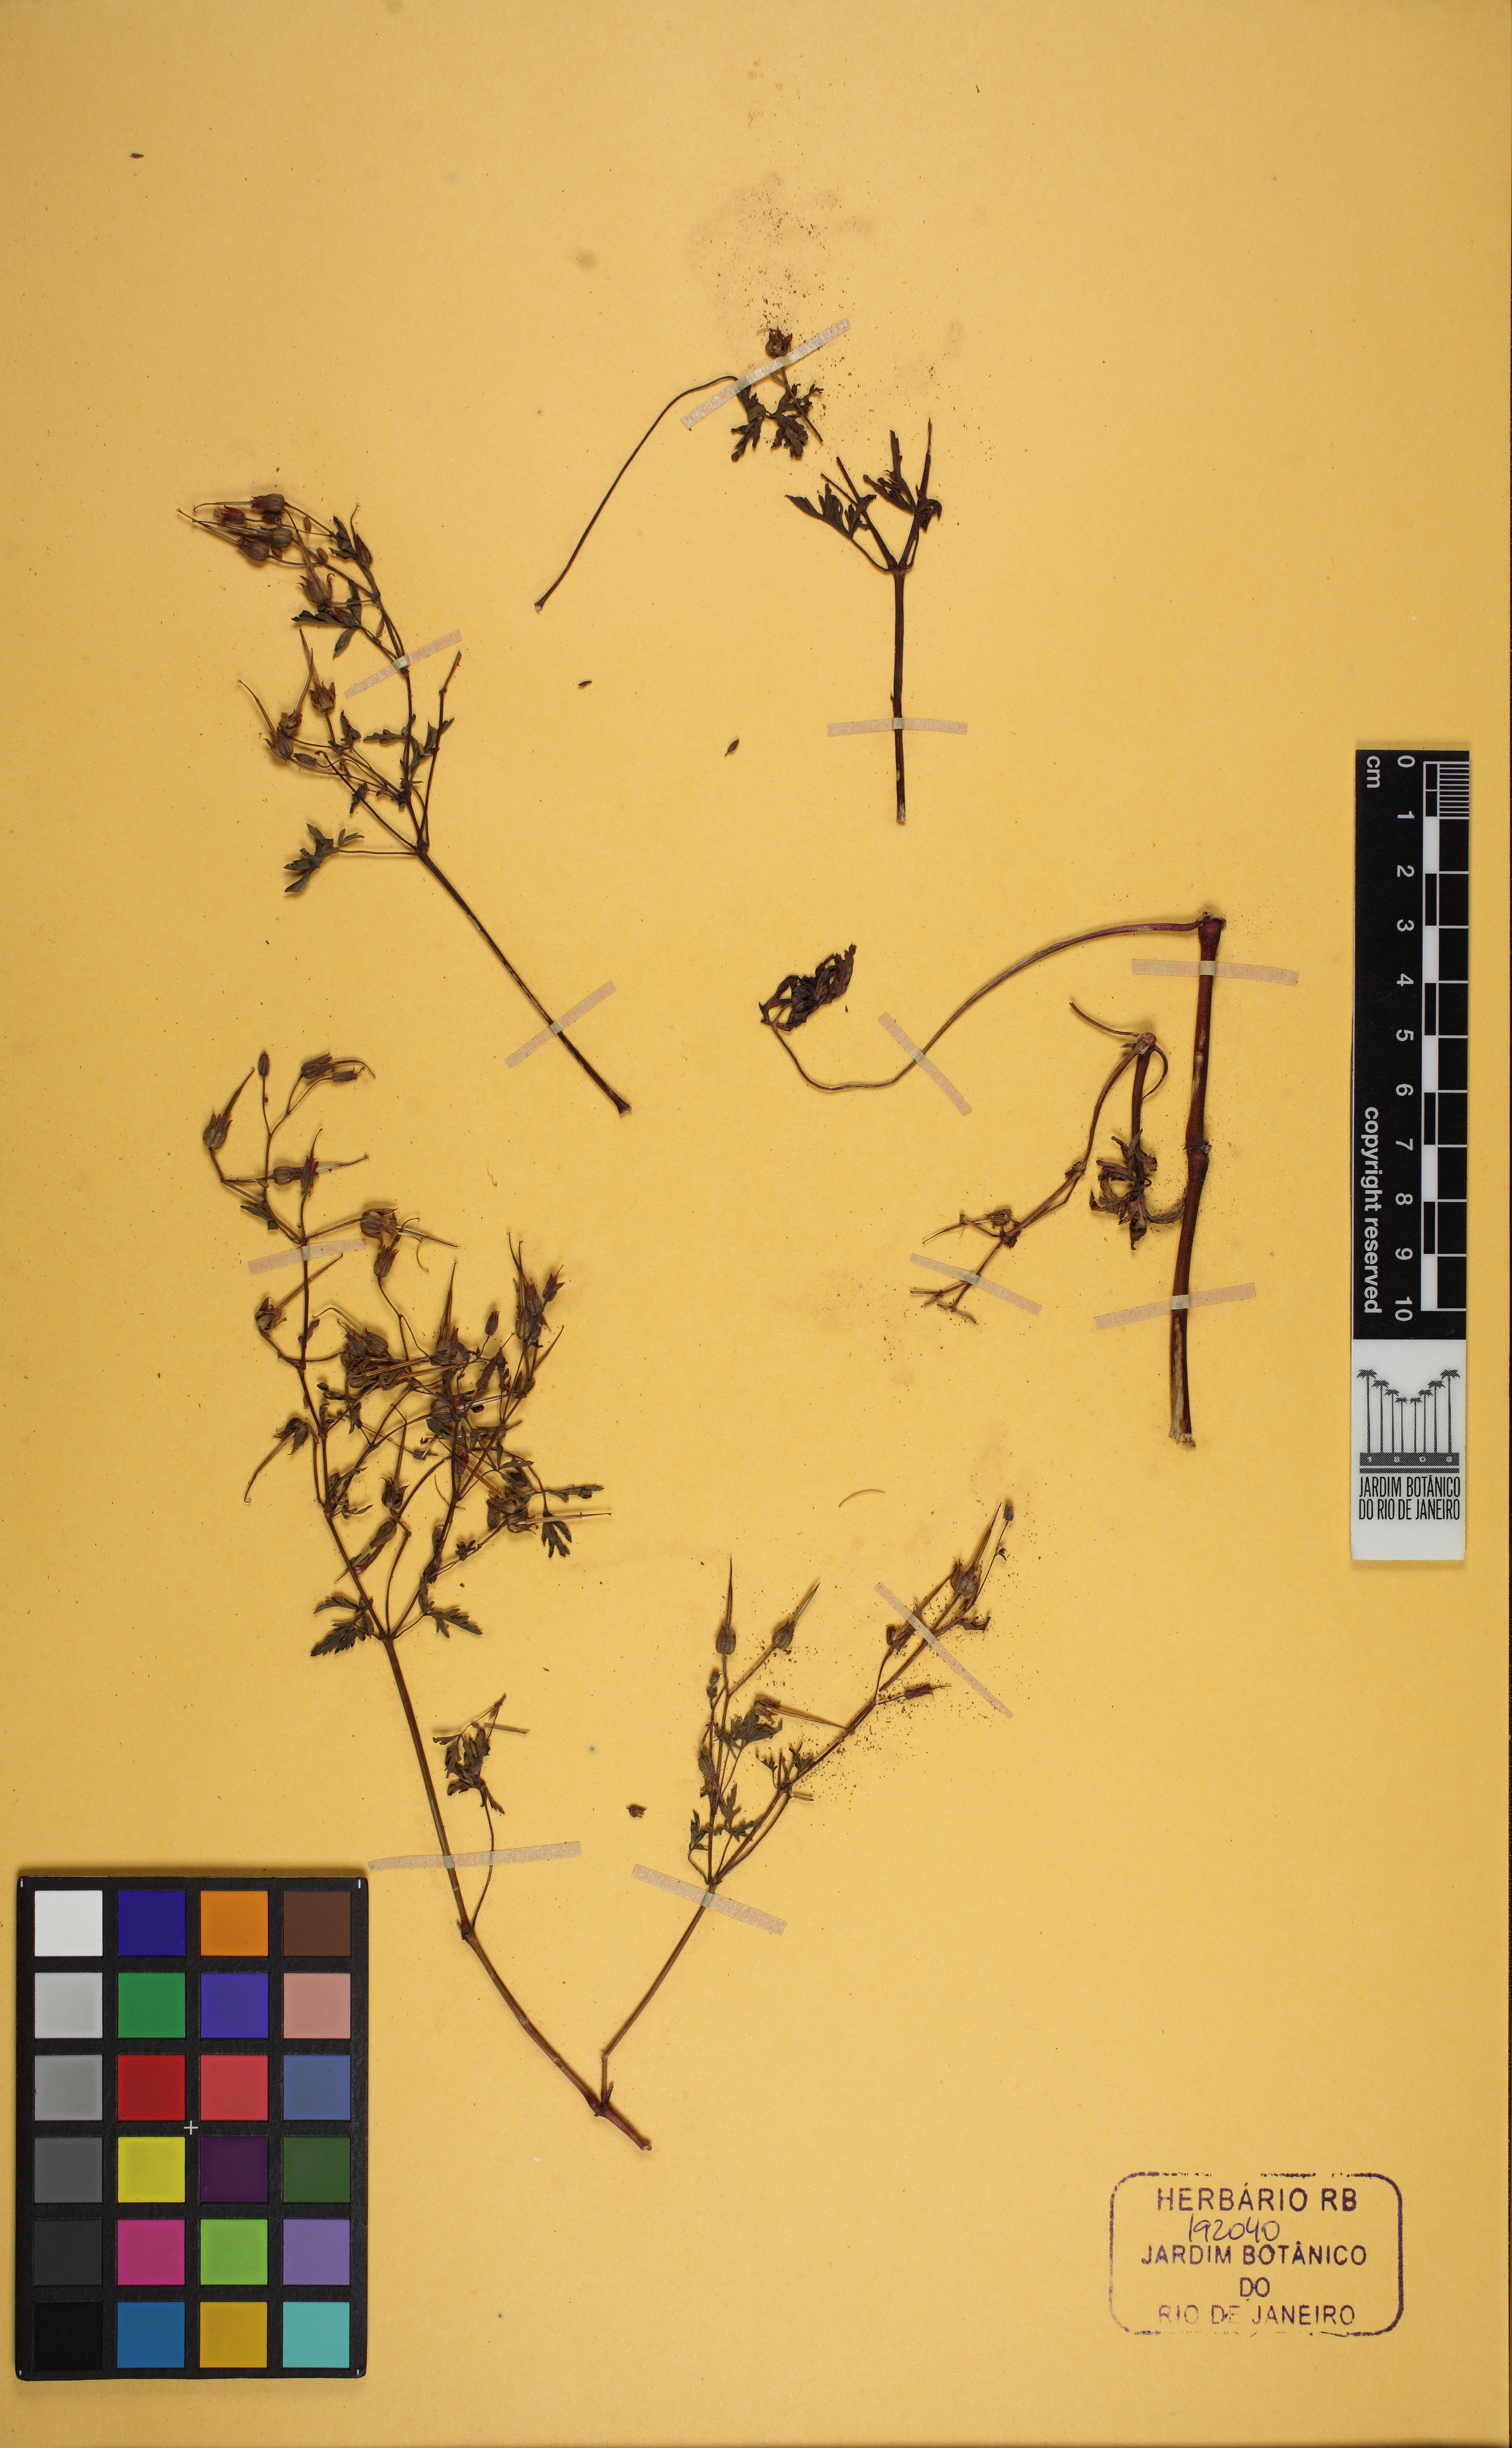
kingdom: Plantae
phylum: Tracheophyta
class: Magnoliopsida
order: Ranunculales
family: Ranunculaceae
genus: Ranunculus
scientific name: Ranunculus
